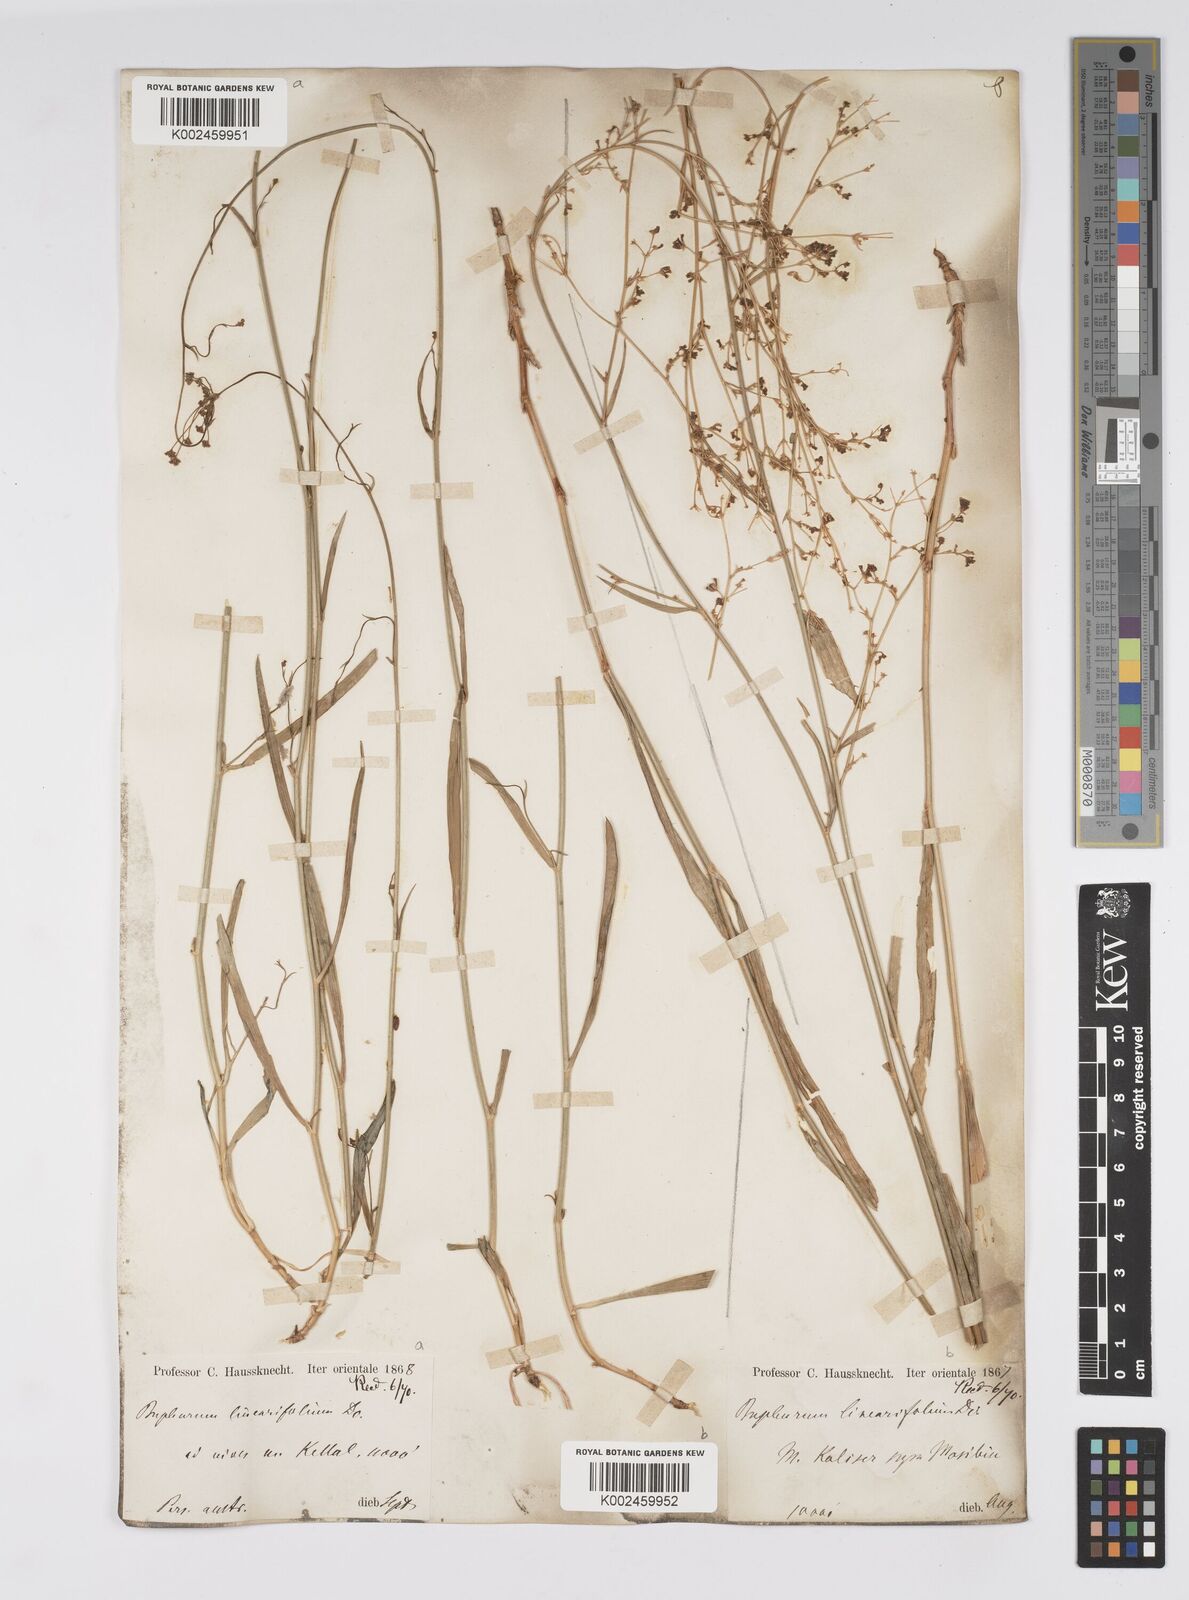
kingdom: Plantae
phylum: Tracheophyta
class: Magnoliopsida
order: Apiales
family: Apiaceae
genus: Bupleurum
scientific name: Bupleurum falcatum
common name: Sickle-leaved hare's-ear
